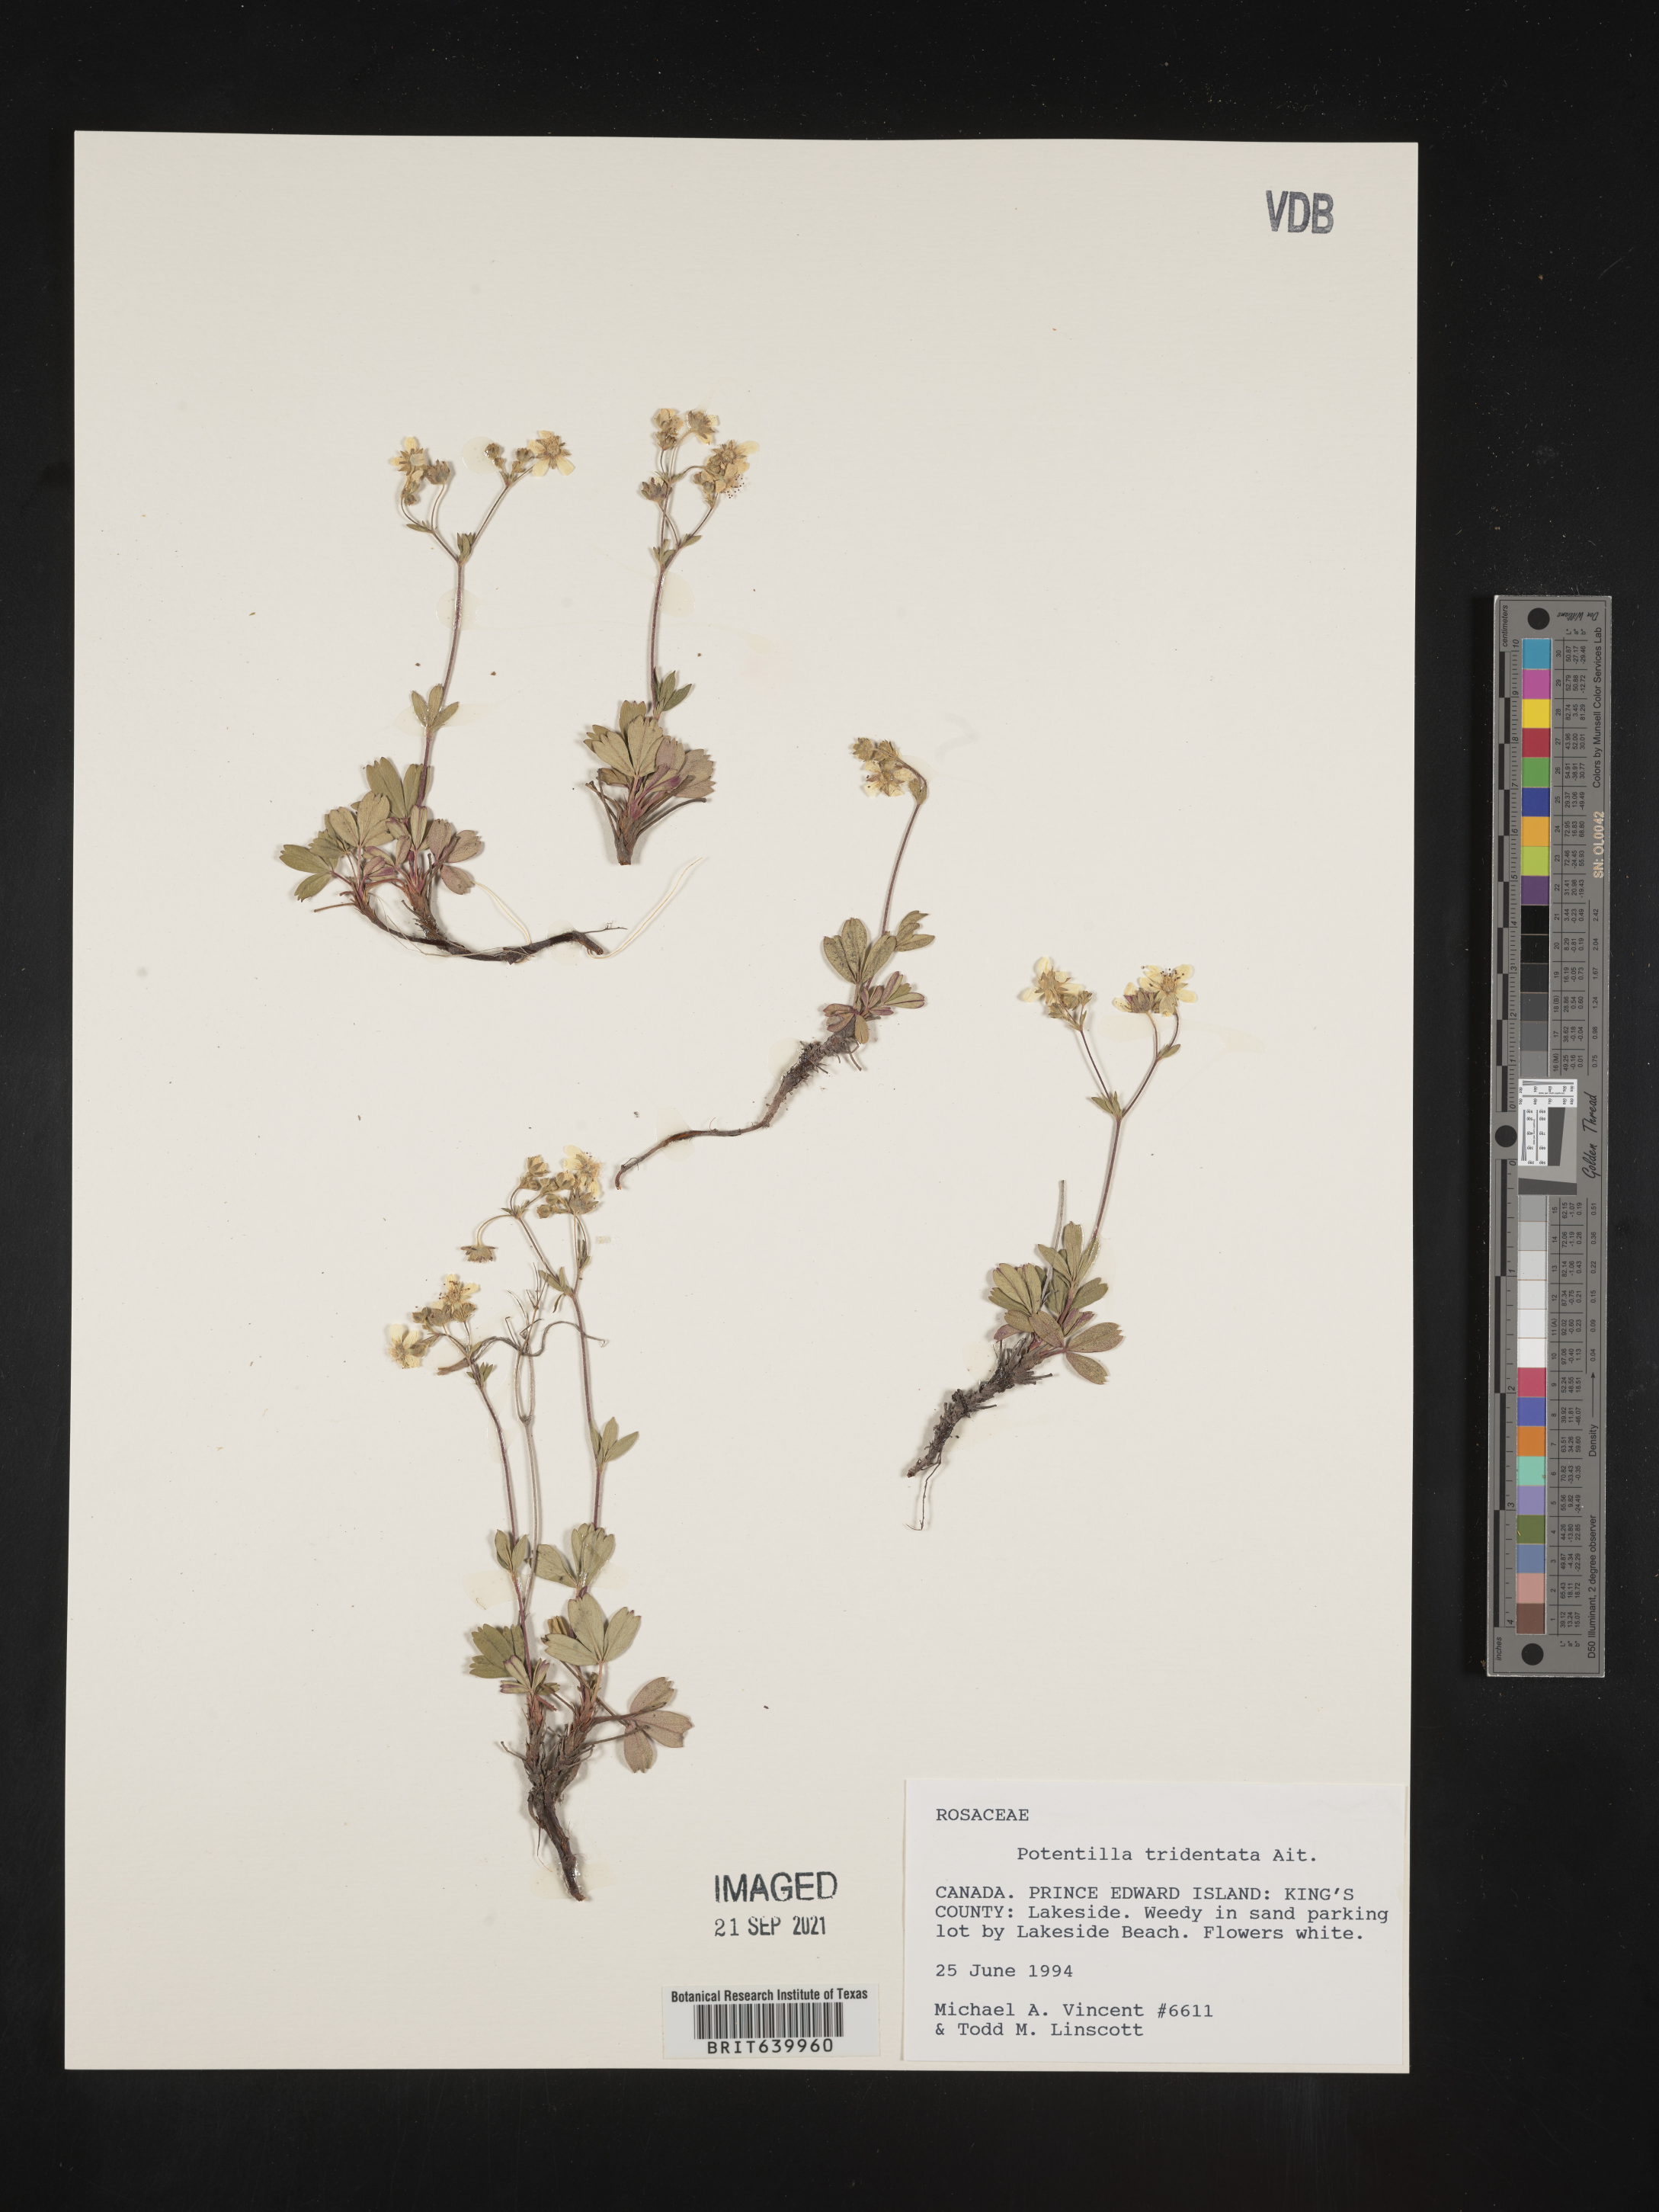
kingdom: Plantae
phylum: Tracheophyta
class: Magnoliopsida
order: Rosales
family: Rosaceae
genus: Potentilla
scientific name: Potentilla
